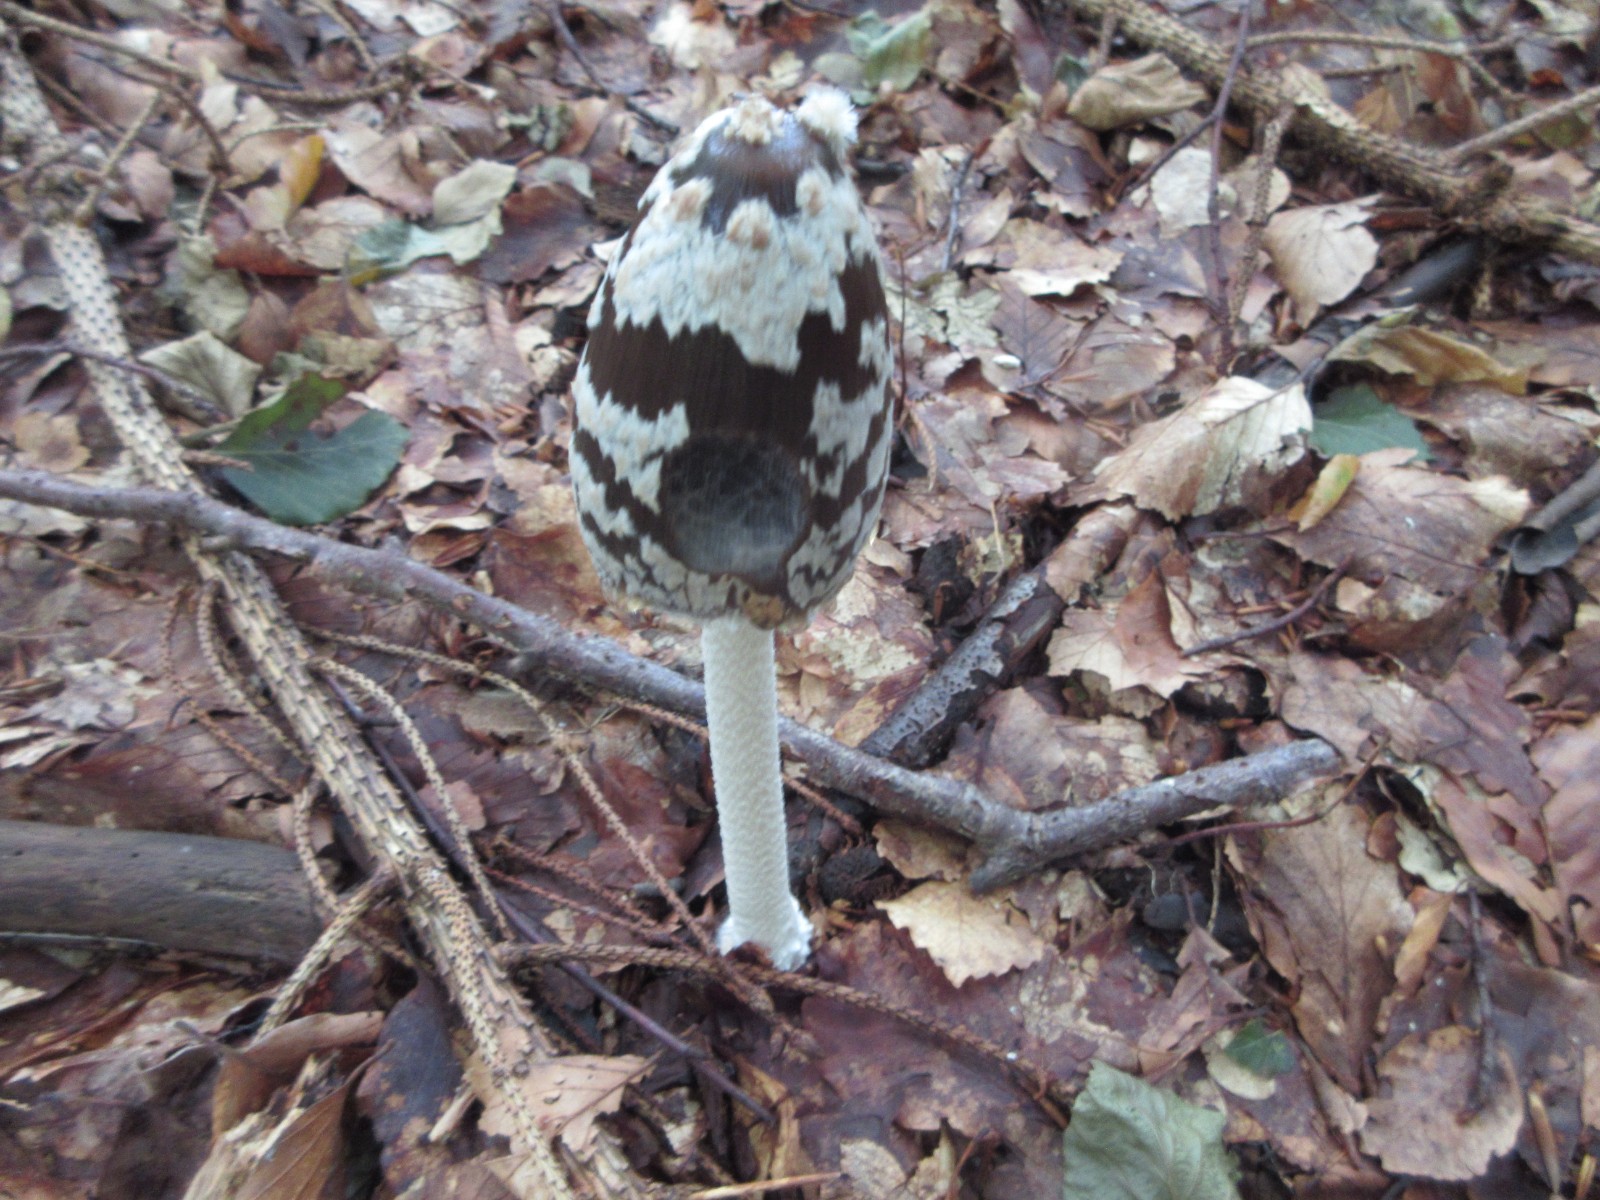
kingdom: Fungi
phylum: Basidiomycota
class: Agaricomycetes
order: Agaricales
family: Psathyrellaceae
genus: Coprinopsis
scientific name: Coprinopsis picacea
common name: skade-blækhat
